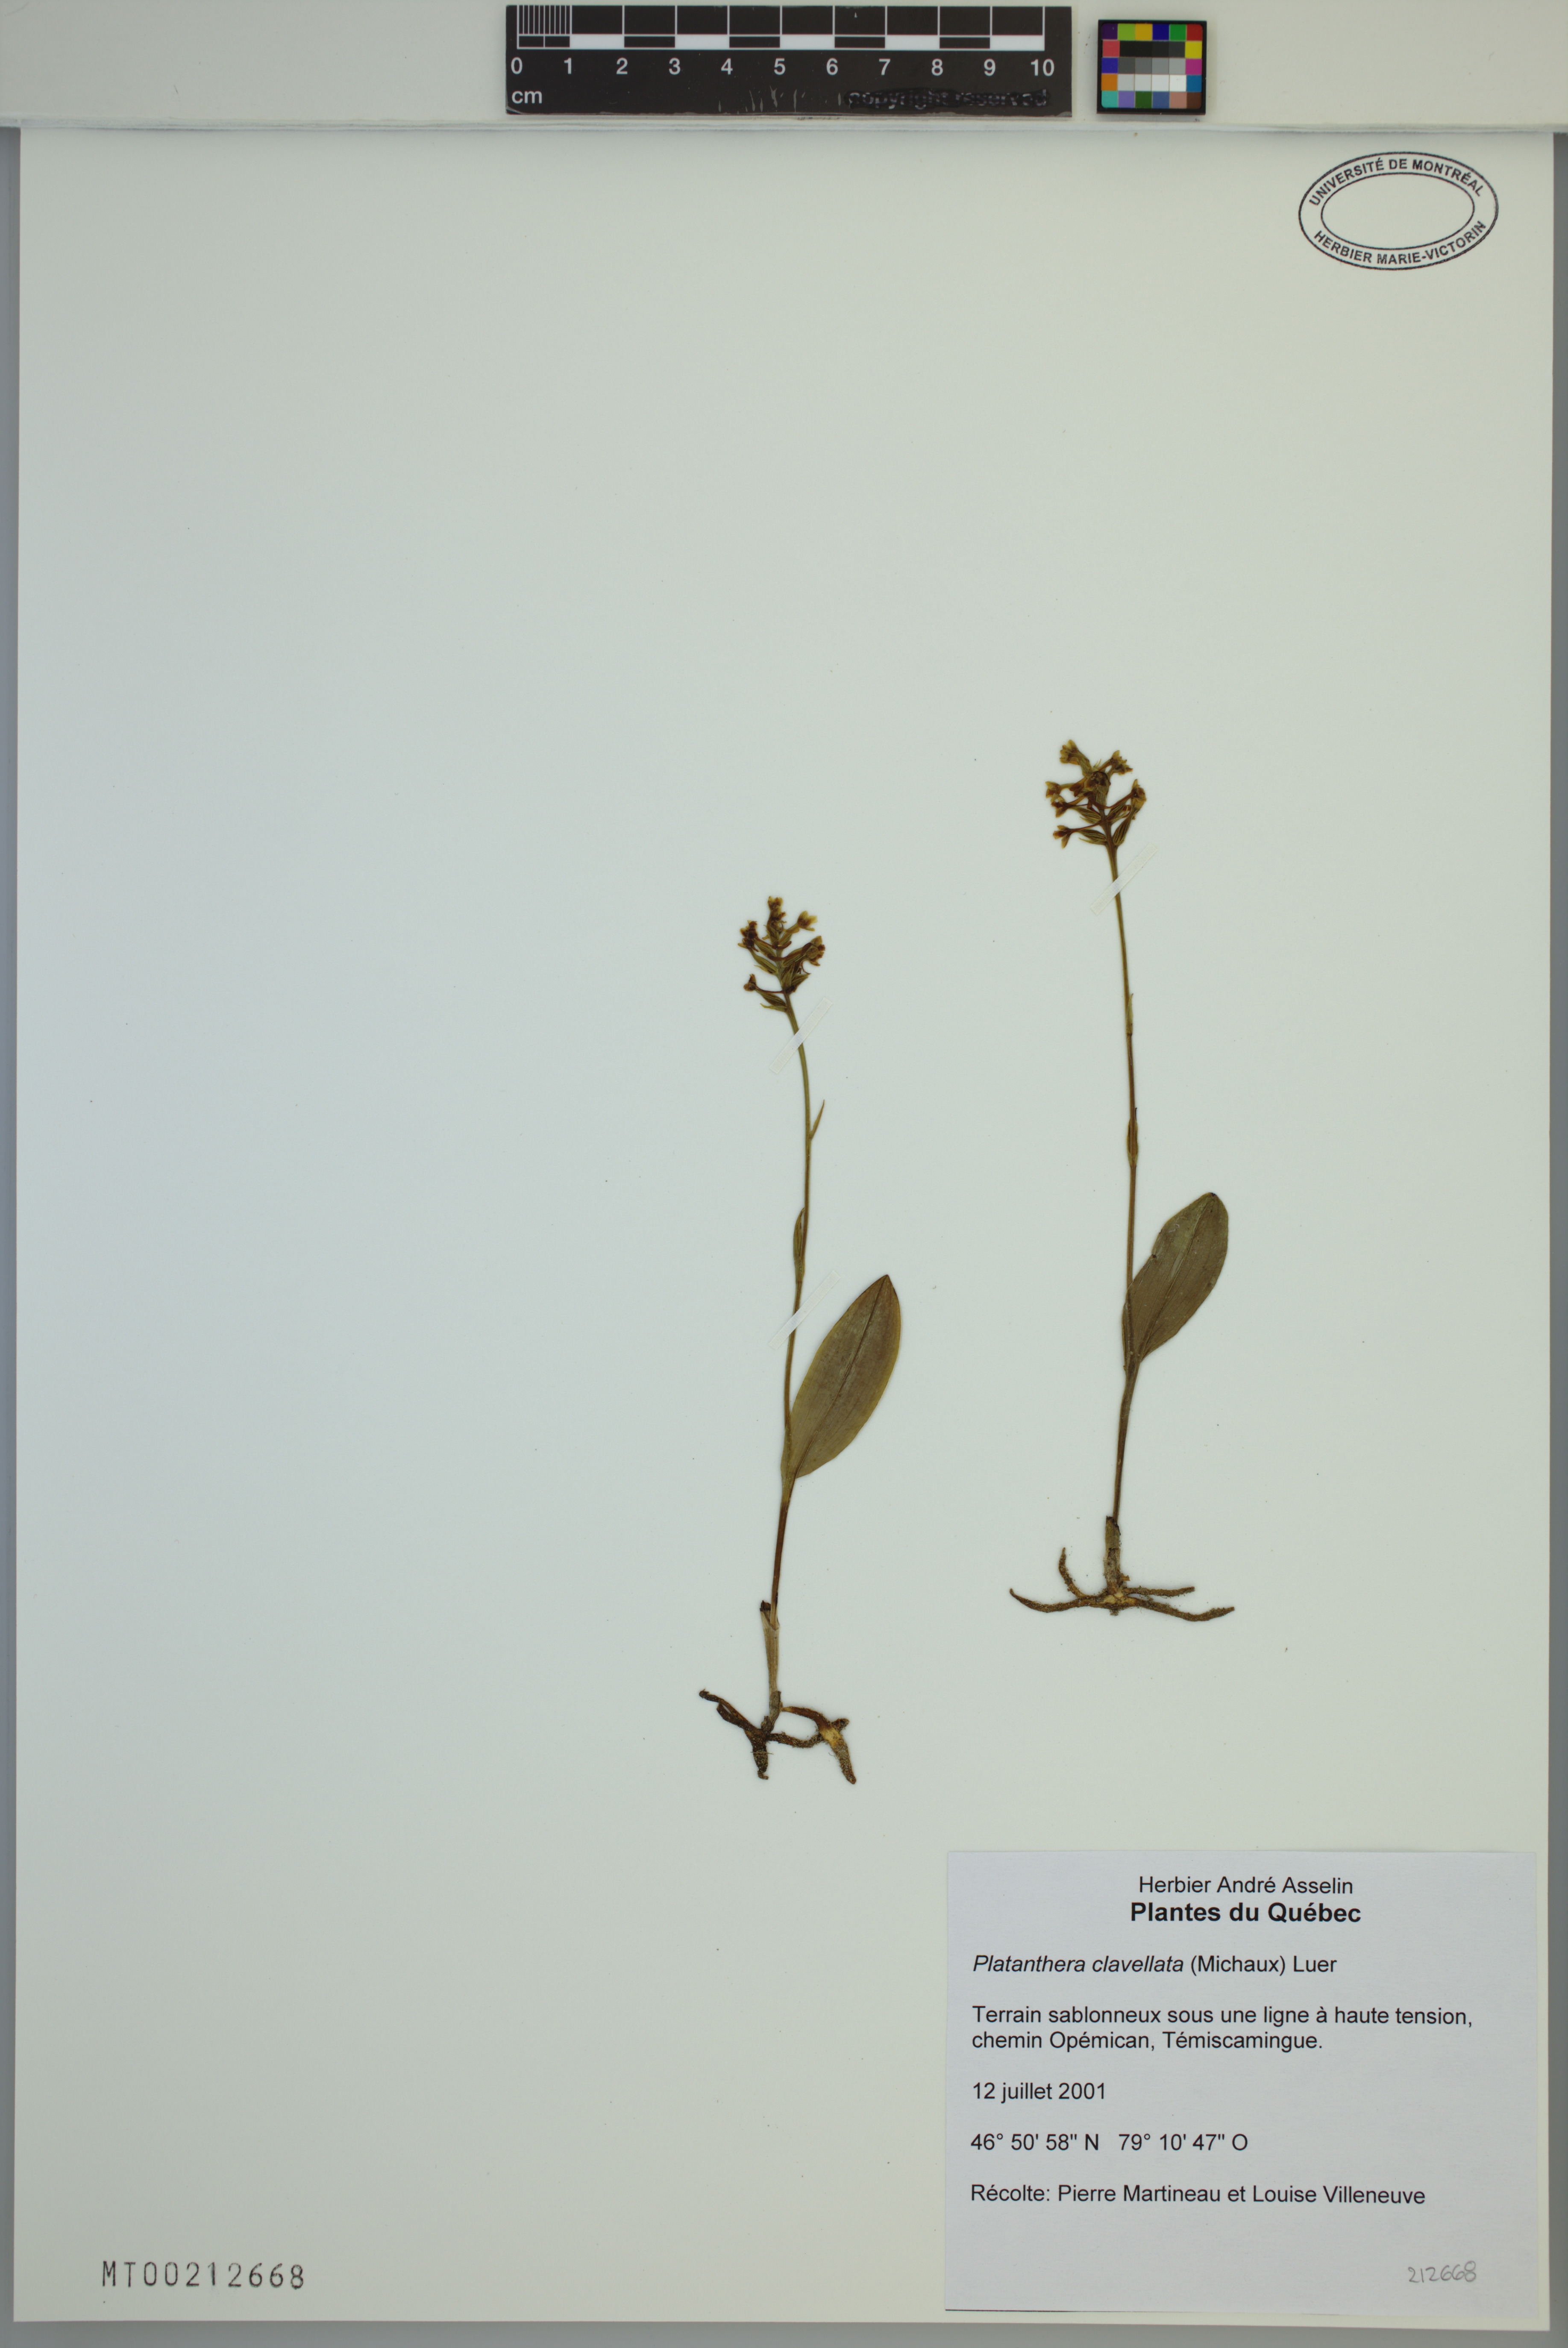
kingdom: Plantae
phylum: Tracheophyta
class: Liliopsida
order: Asparagales
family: Orchidaceae
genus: Platanthera
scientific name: Platanthera clavellata
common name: Club-spur orchid
